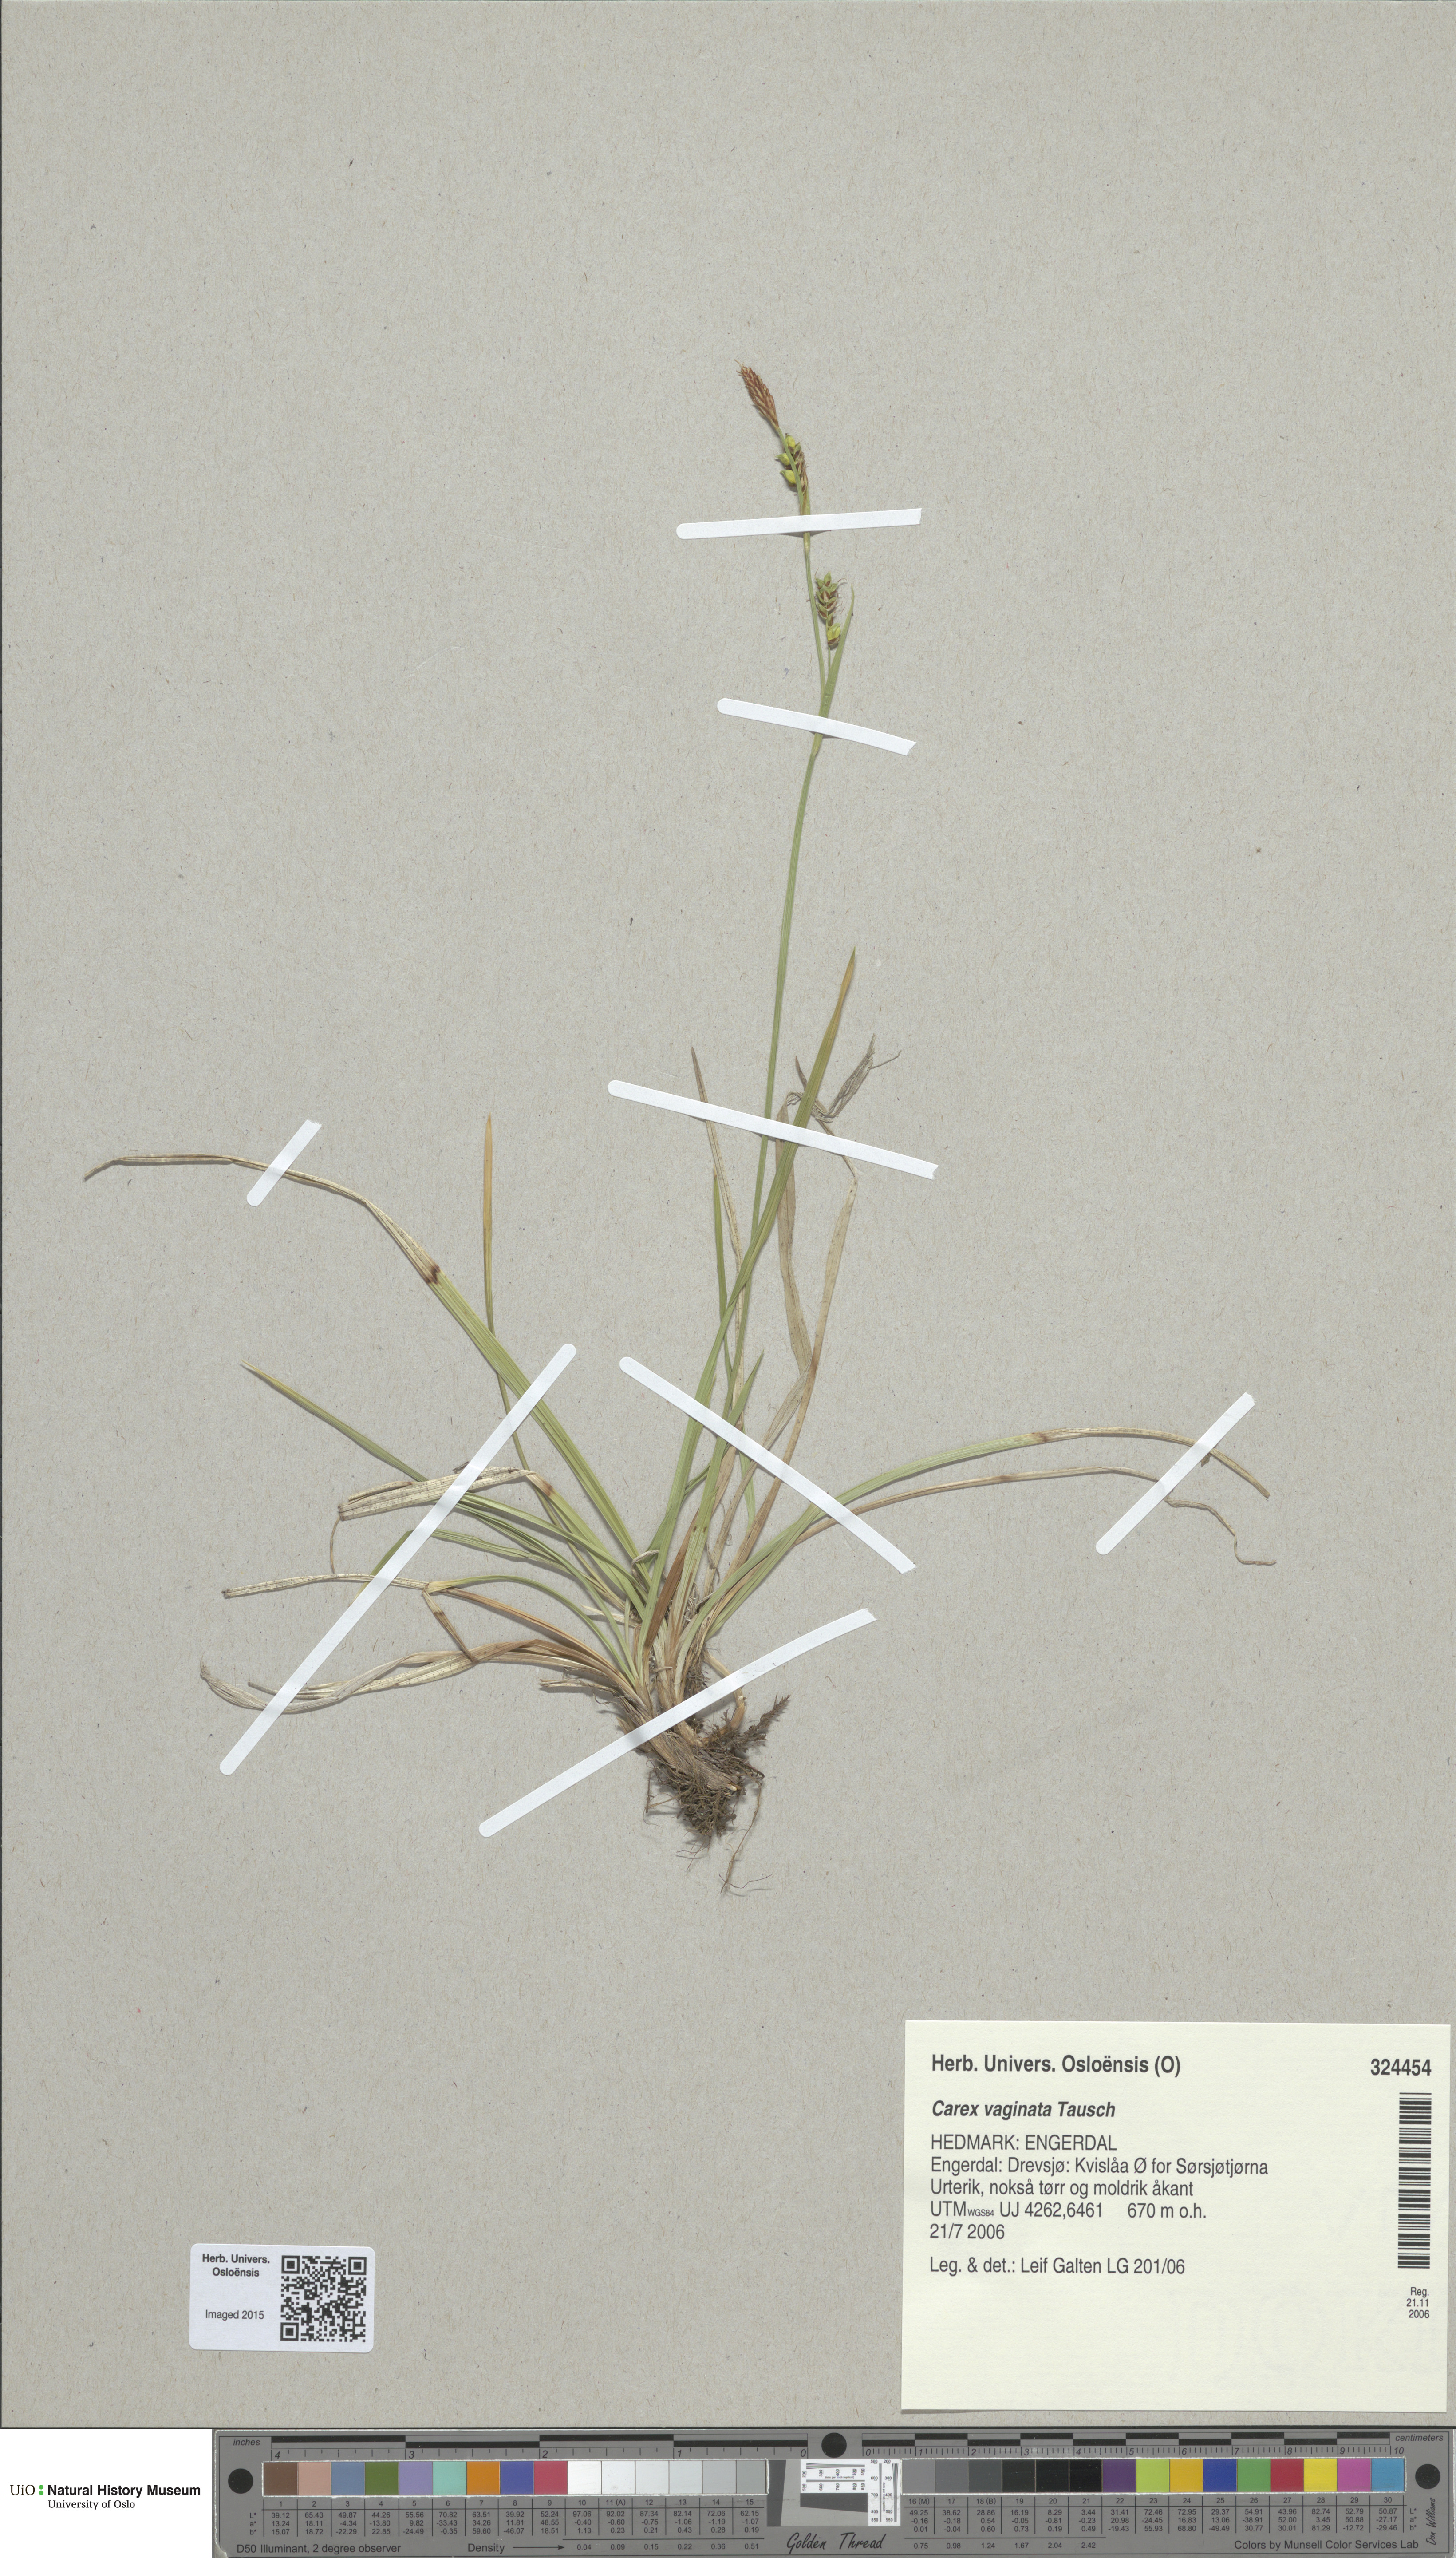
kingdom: Plantae
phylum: Tracheophyta
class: Liliopsida
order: Poales
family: Cyperaceae
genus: Carex
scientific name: Carex vaginata
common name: Sheathed sedge
